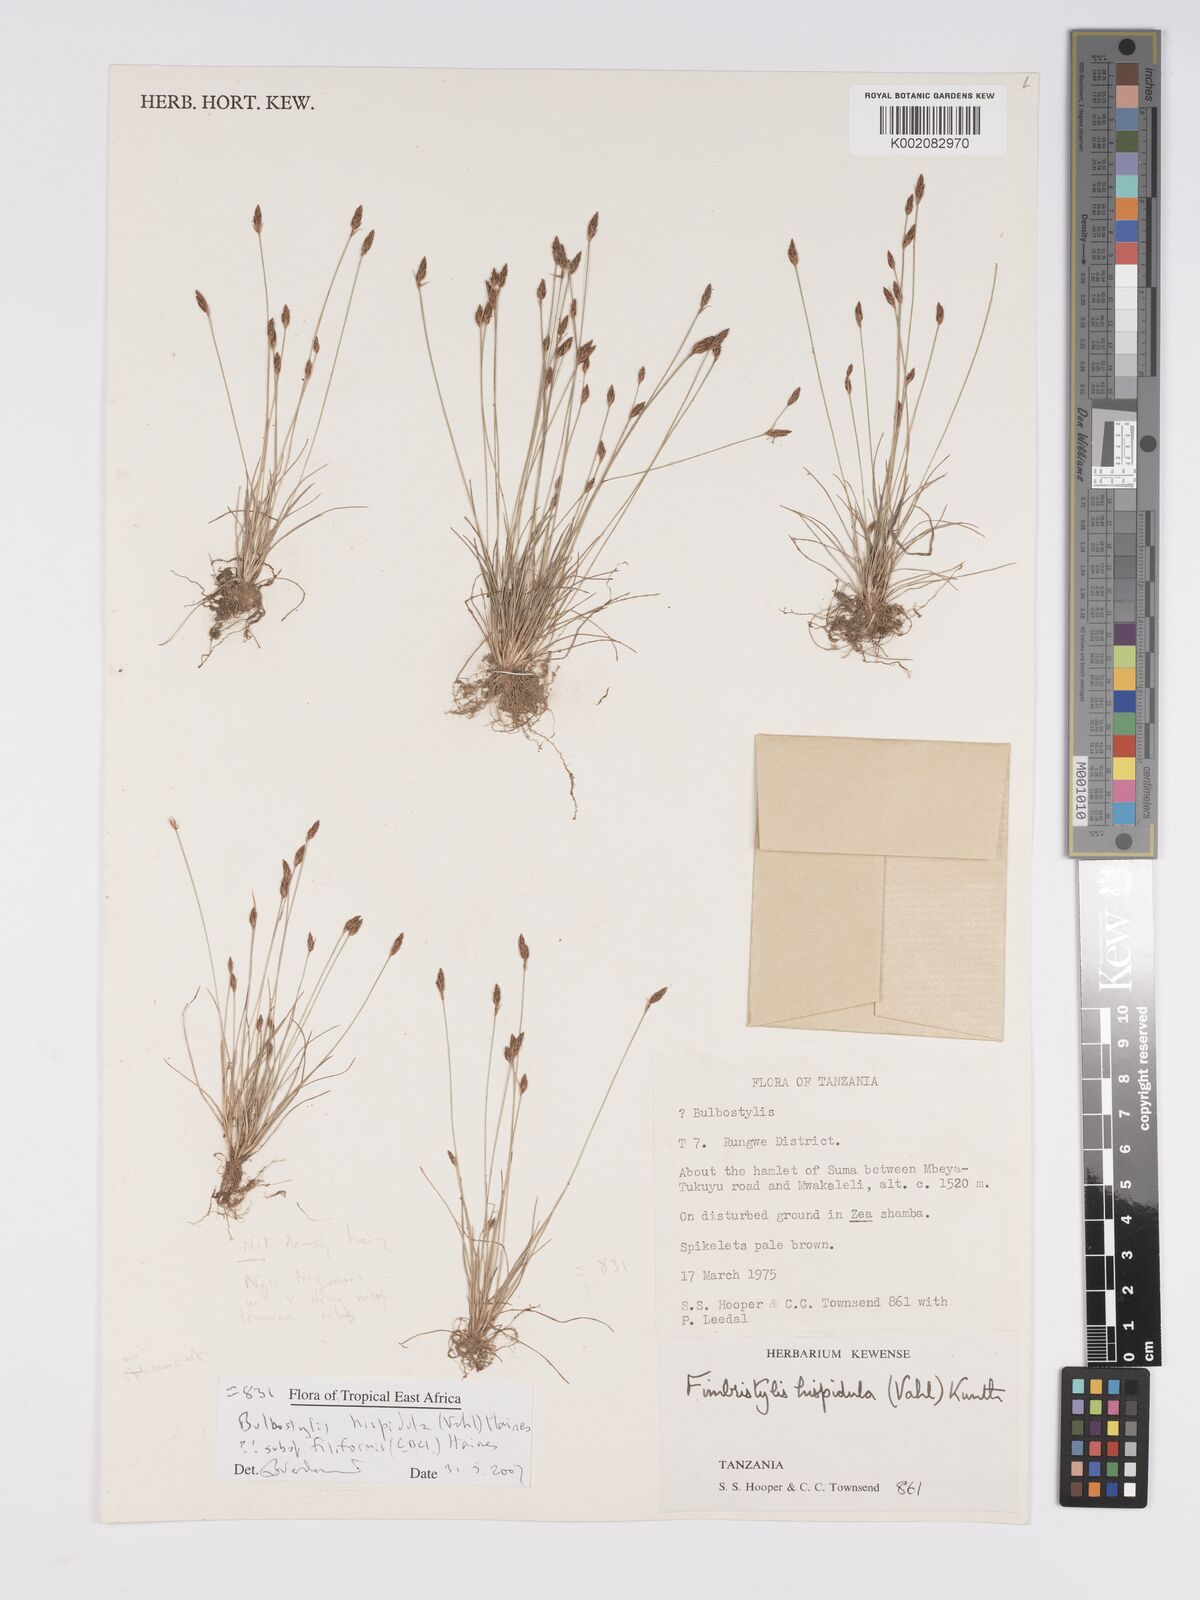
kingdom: Plantae
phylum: Tracheophyta
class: Liliopsida
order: Poales
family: Cyperaceae
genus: Bulbostylis
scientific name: Bulbostylis hispidula
